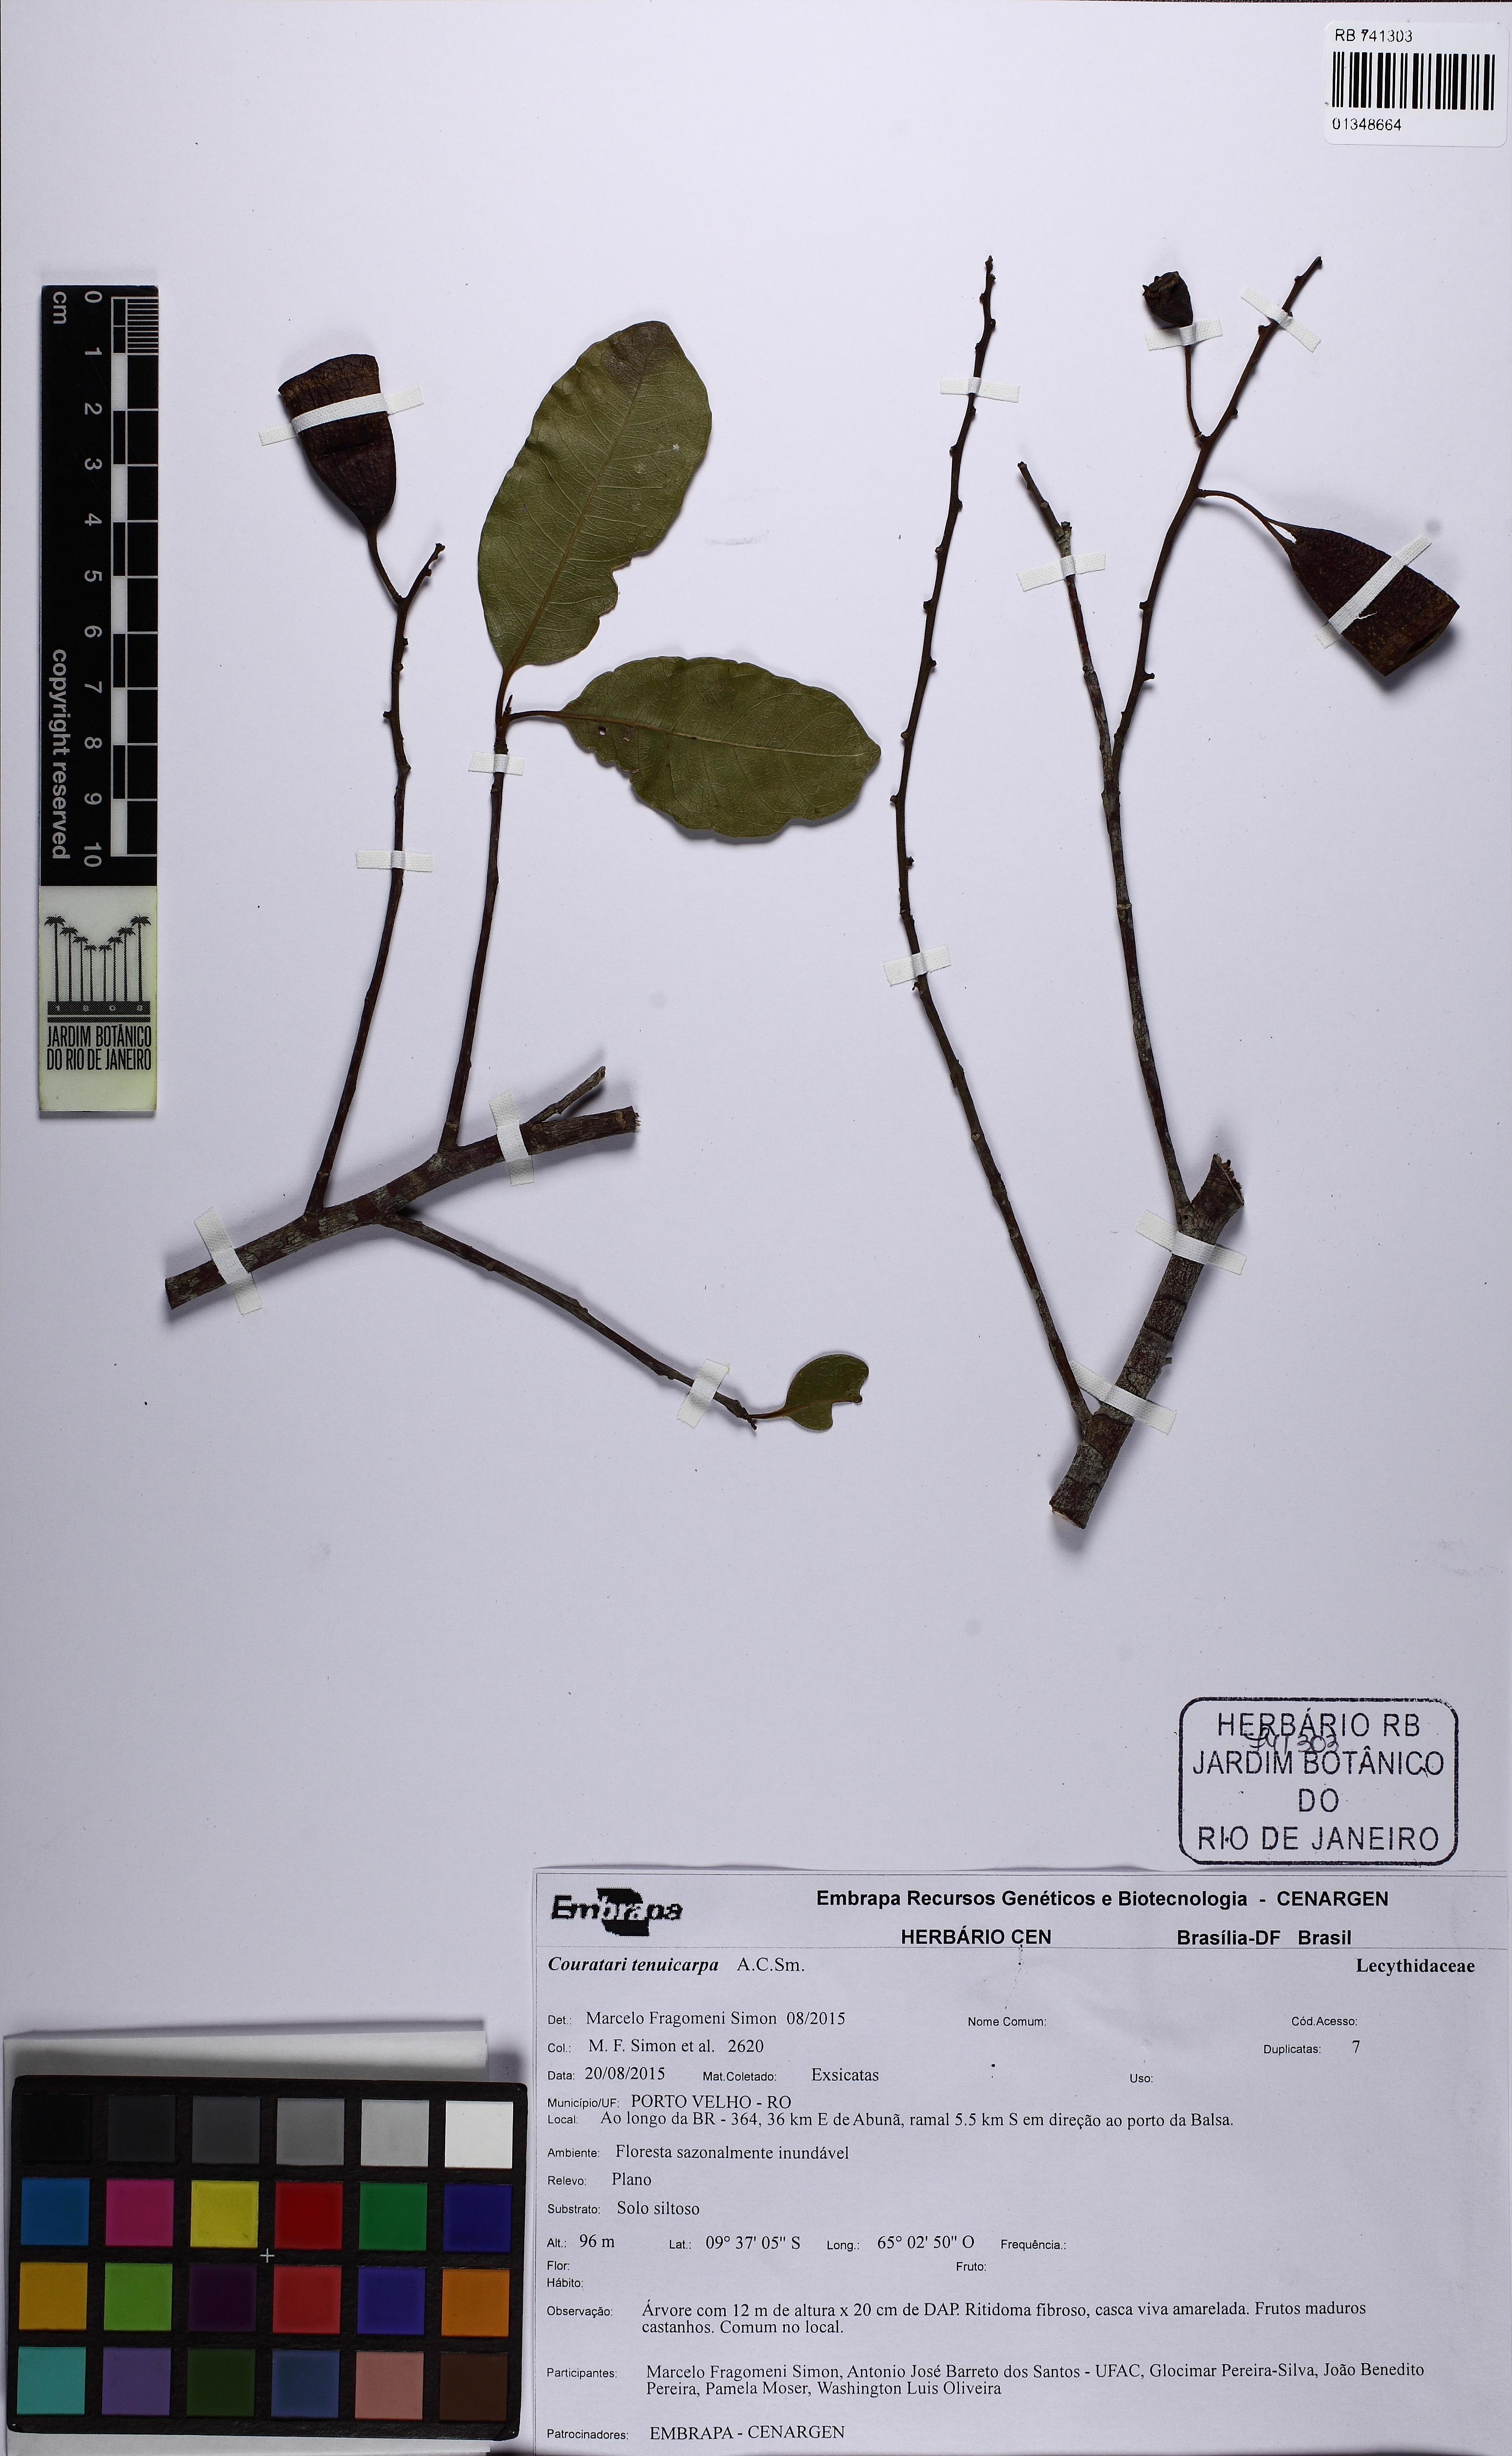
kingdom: Plantae
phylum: Tracheophyta
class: Magnoliopsida
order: Ericales
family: Lecythidaceae
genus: Couratari
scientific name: Couratari tenuicarpa
